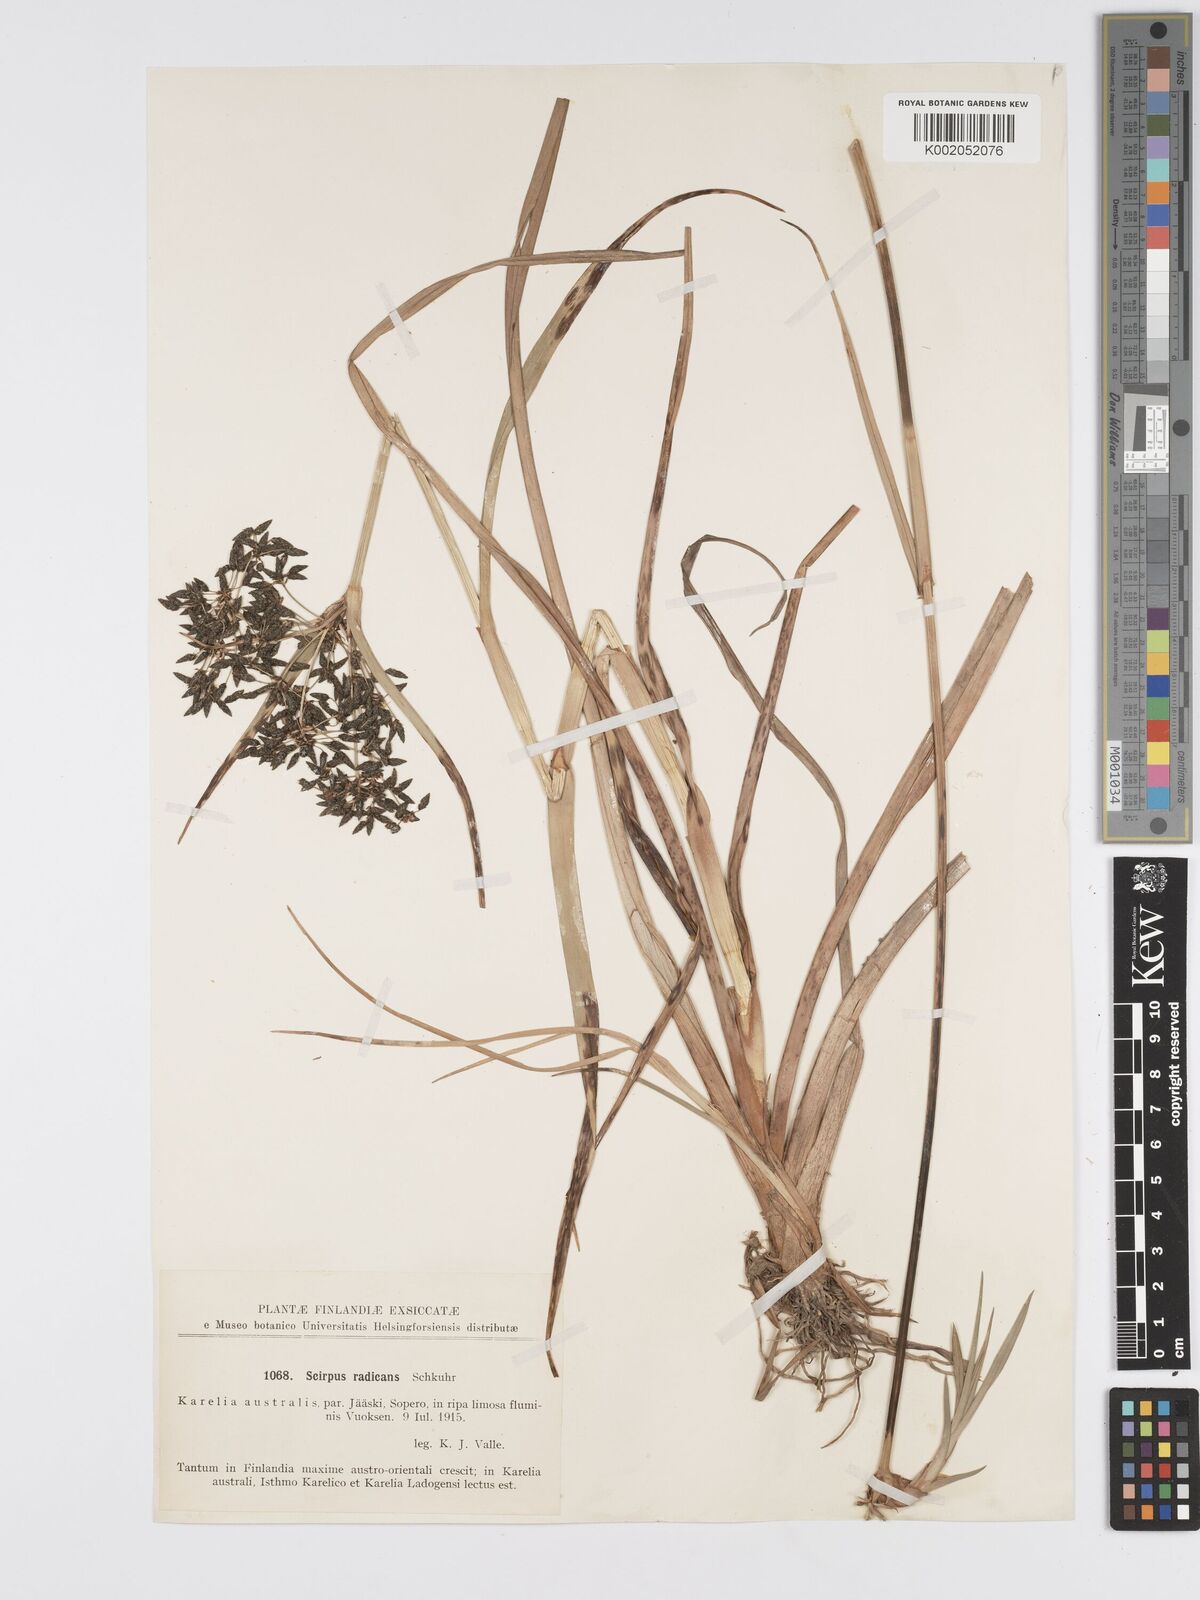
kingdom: Plantae
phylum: Tracheophyta
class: Liliopsida
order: Poales
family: Cyperaceae
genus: Scirpus
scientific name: Scirpus radicans
